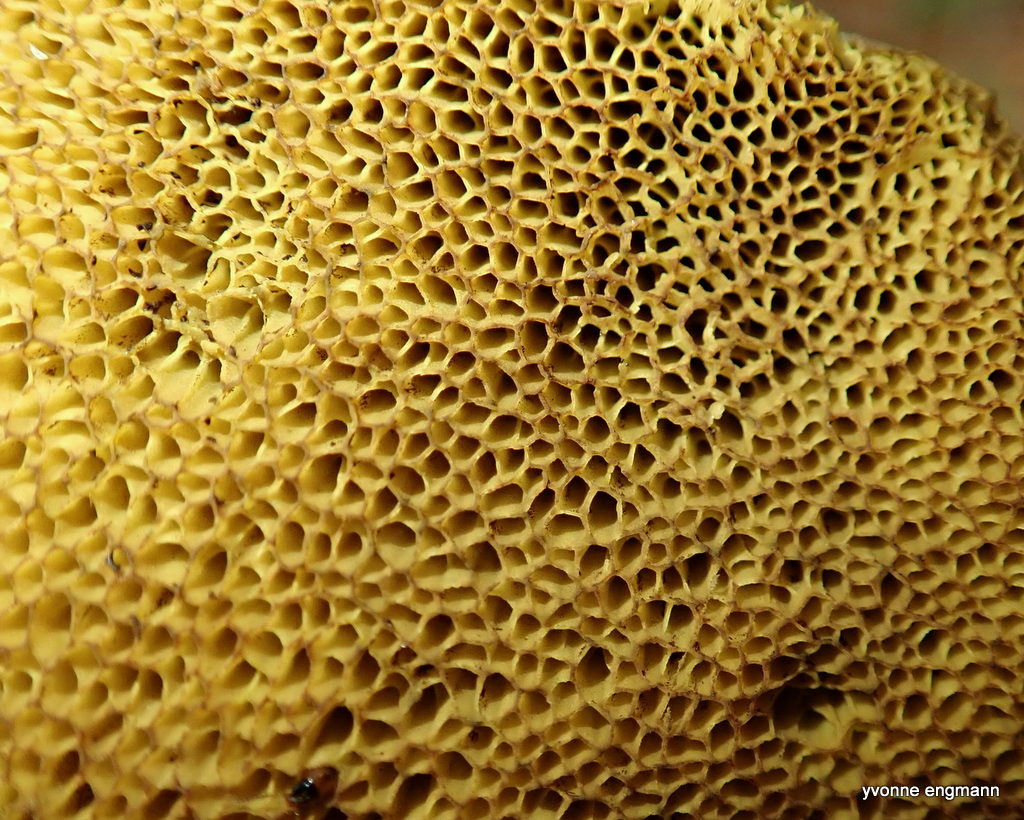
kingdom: Fungi
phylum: Basidiomycota
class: Agaricomycetes
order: Boletales
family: Boletaceae
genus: Xerocomellus
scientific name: Xerocomellus pruinatus
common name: dugget rørhat
